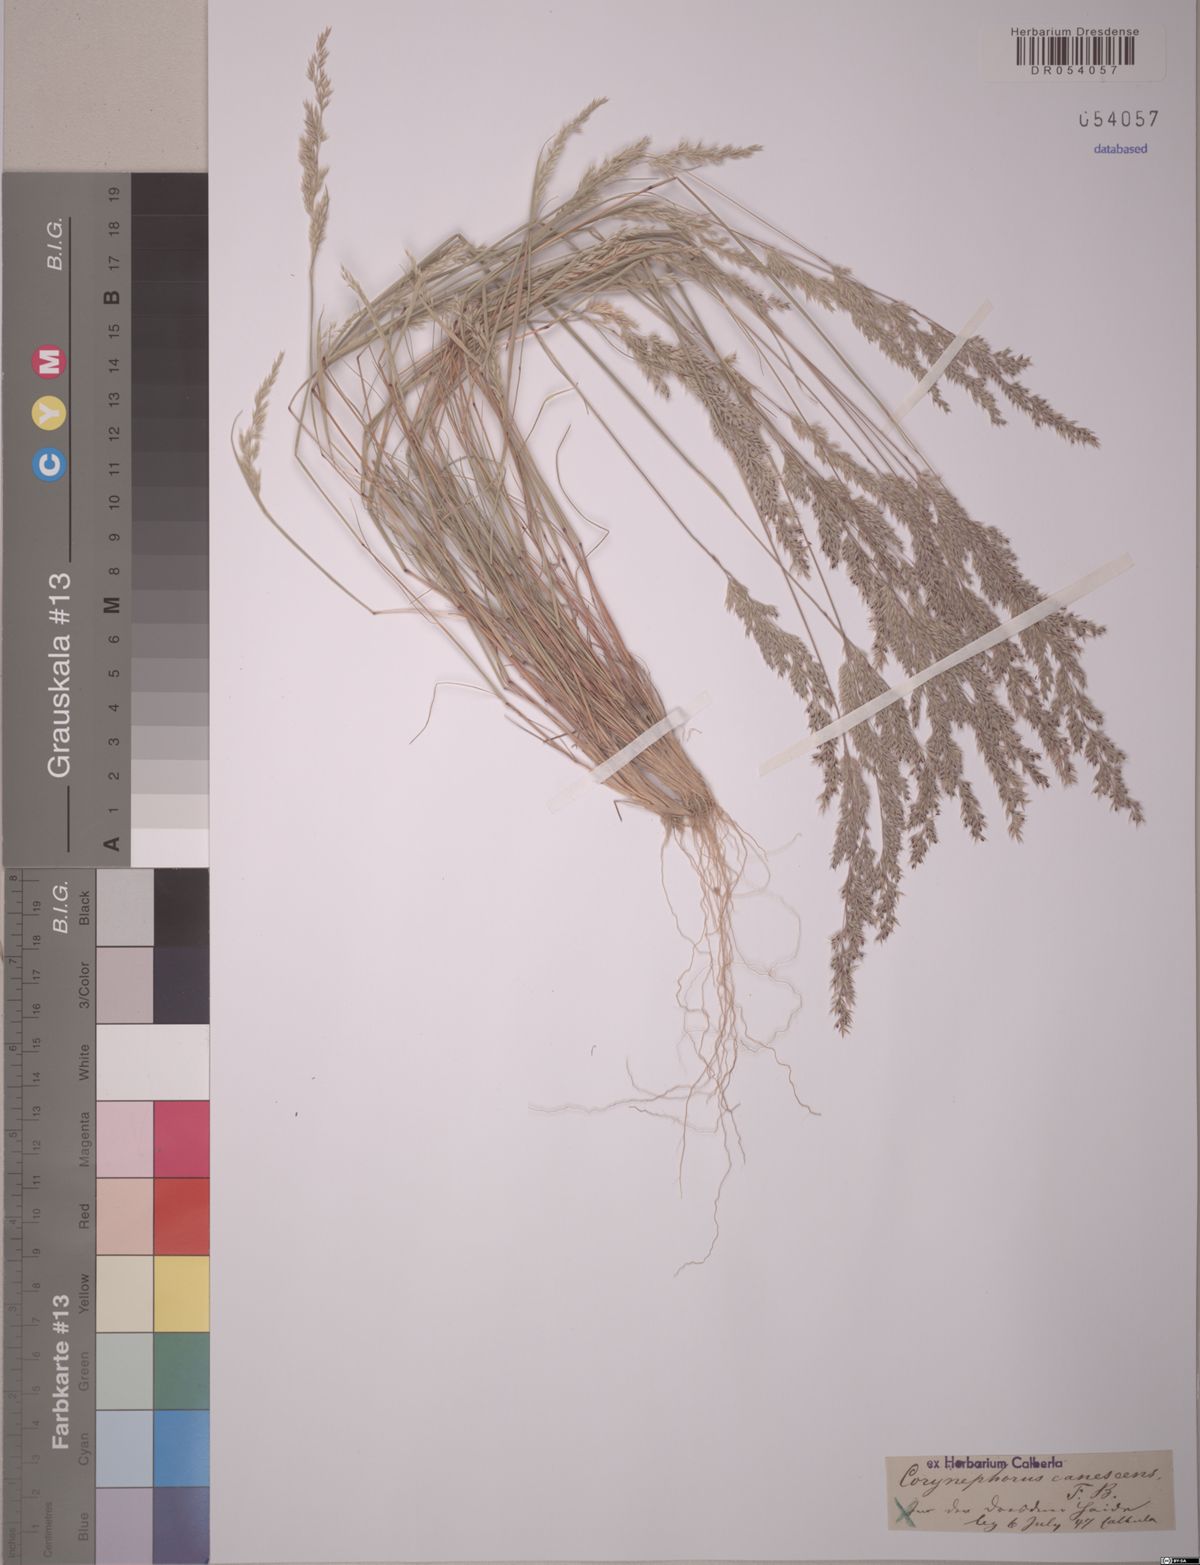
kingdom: Plantae
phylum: Tracheophyta
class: Liliopsida
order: Poales
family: Poaceae
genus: Corynephorus
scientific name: Corynephorus canescens
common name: Grey hair-grass
